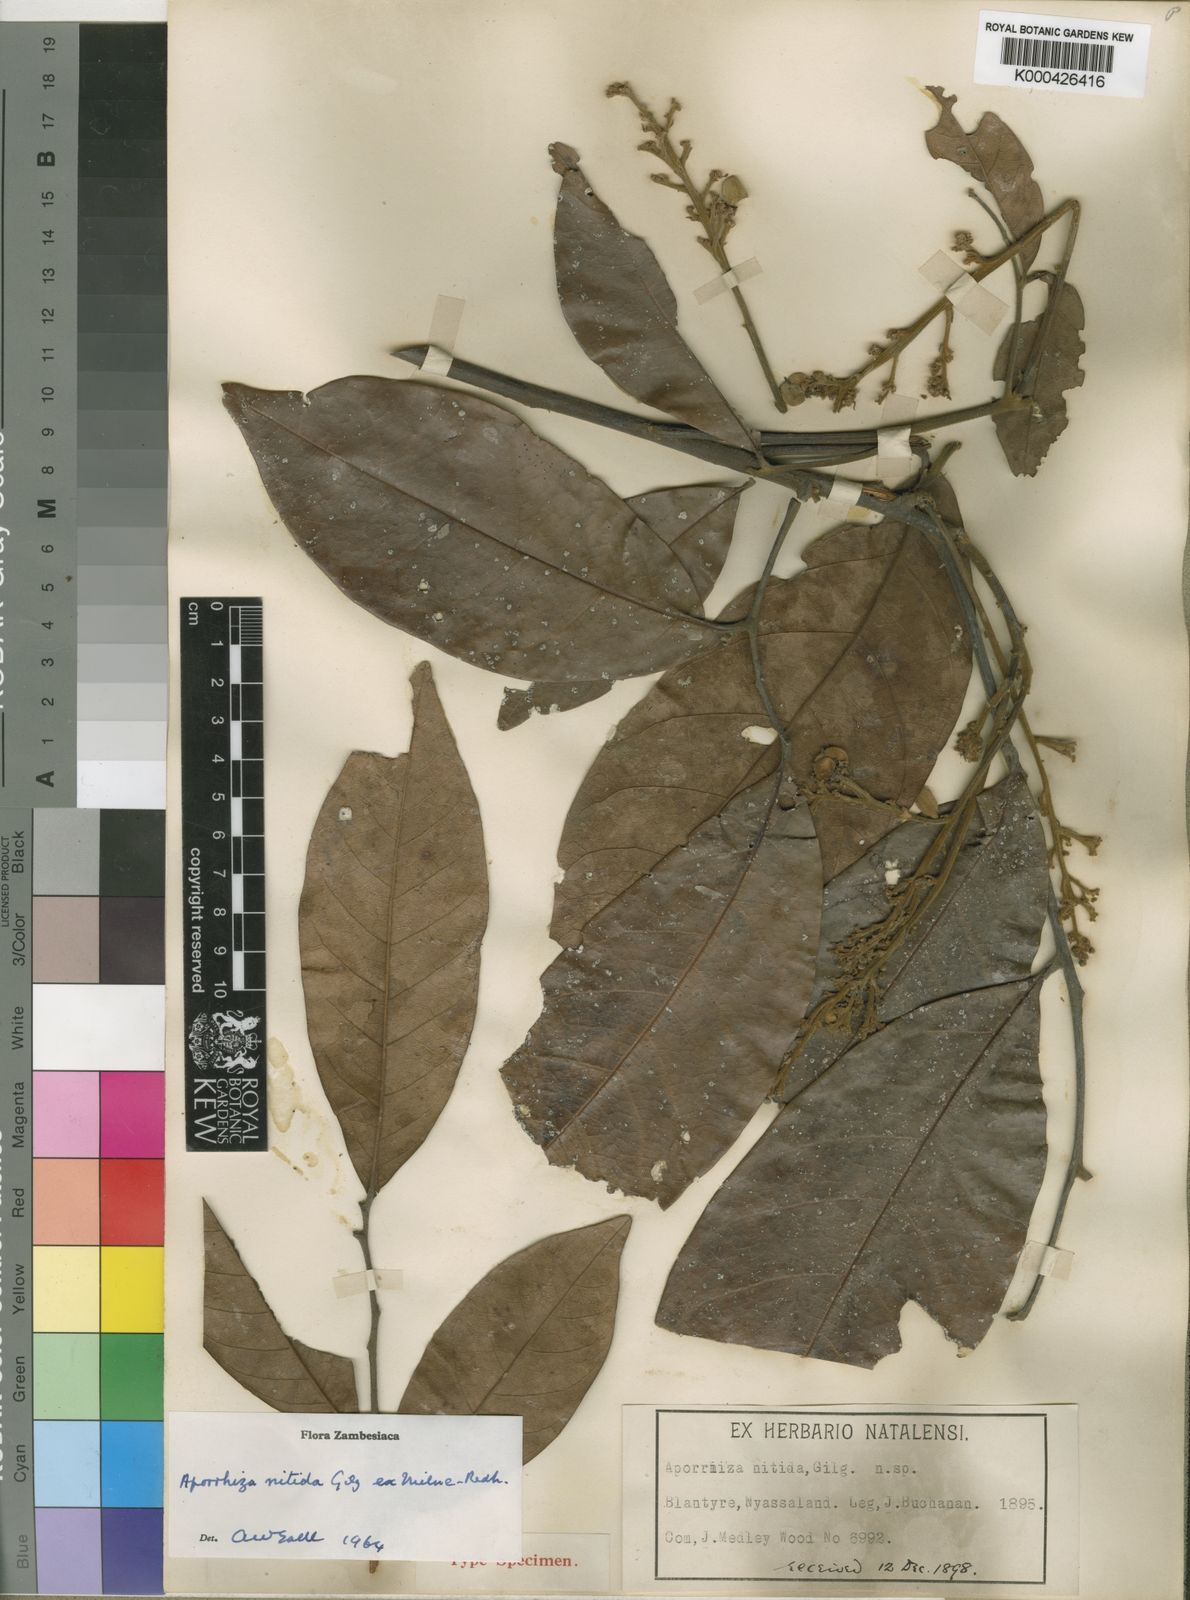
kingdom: Plantae
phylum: Tracheophyta
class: Magnoliopsida
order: Sapindales
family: Sapindaceae
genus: Aporrhiza
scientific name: Aporrhiza
